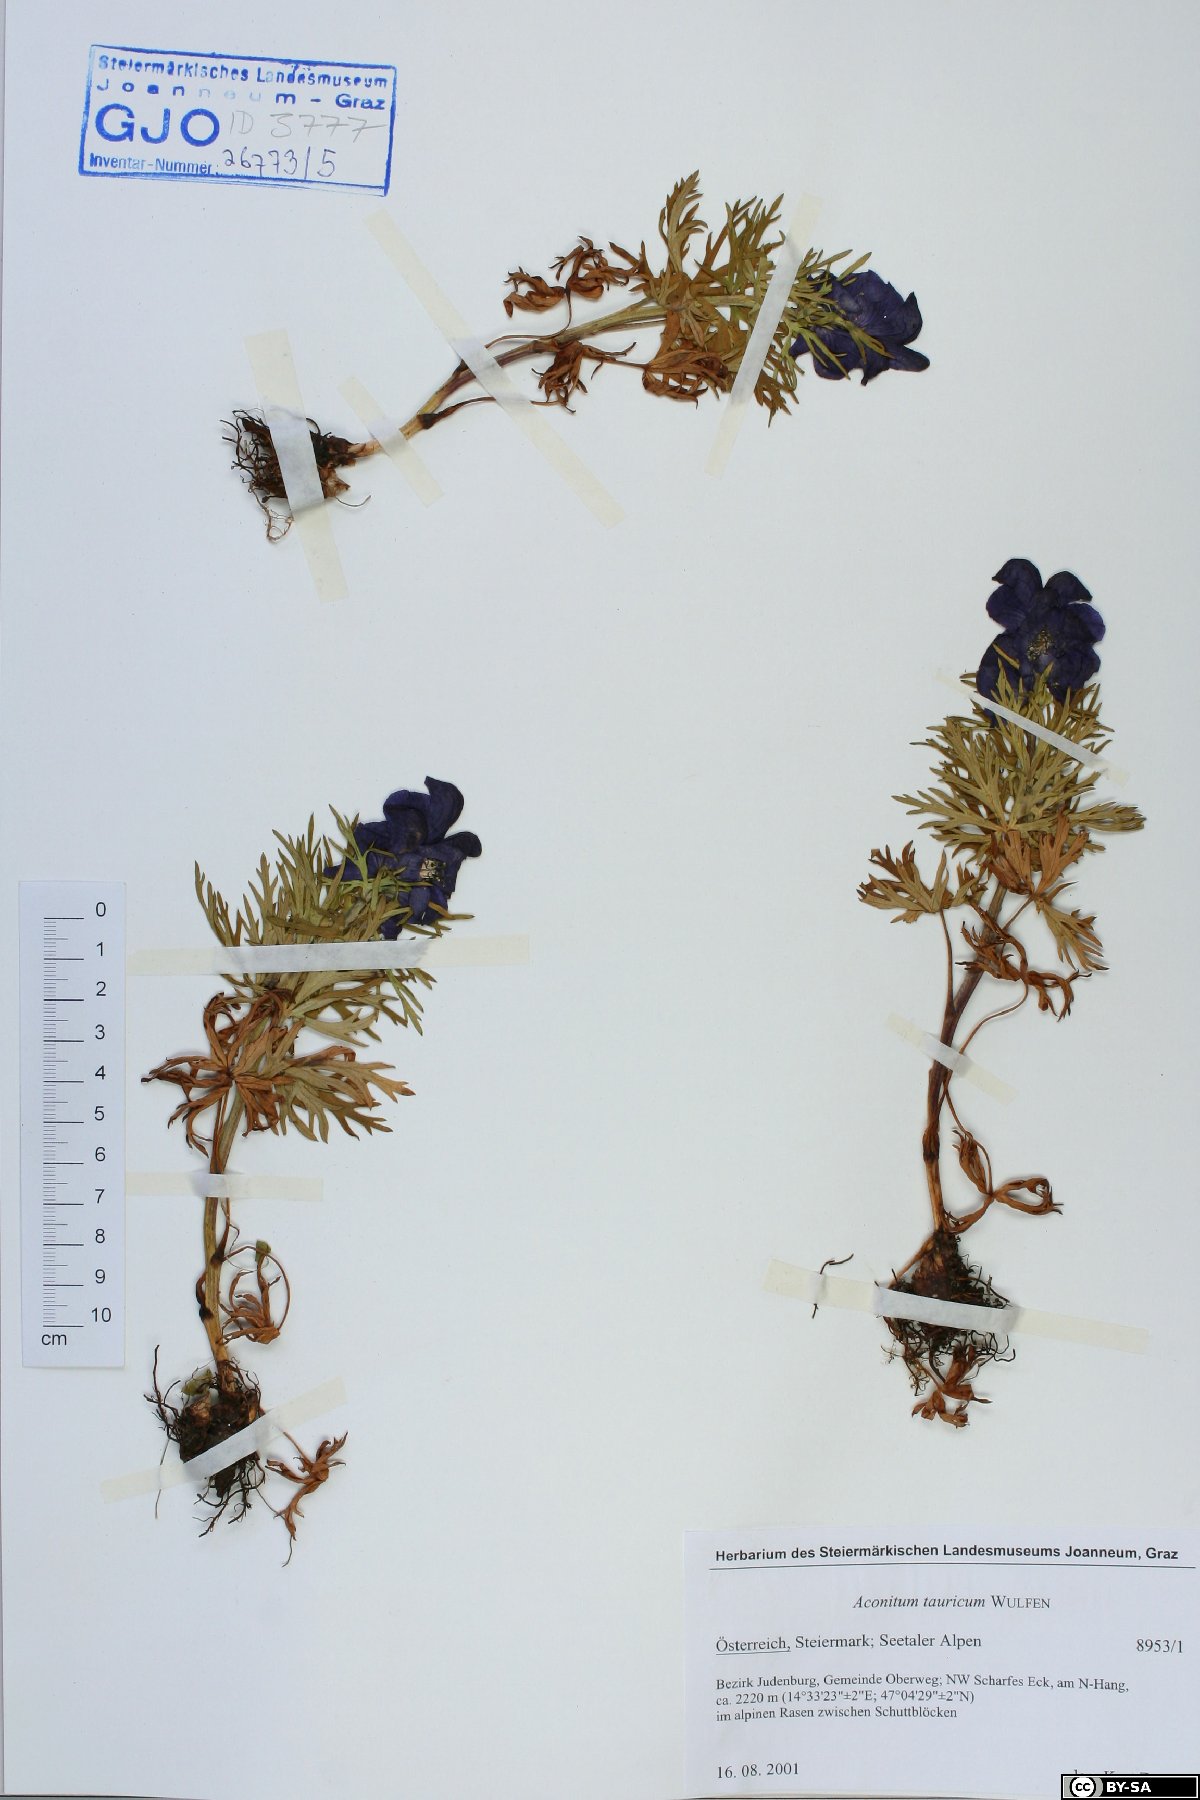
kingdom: Plantae
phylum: Tracheophyta
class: Magnoliopsida
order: Ranunculales
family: Ranunculaceae
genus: Aconitum
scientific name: Aconitum tauricum
